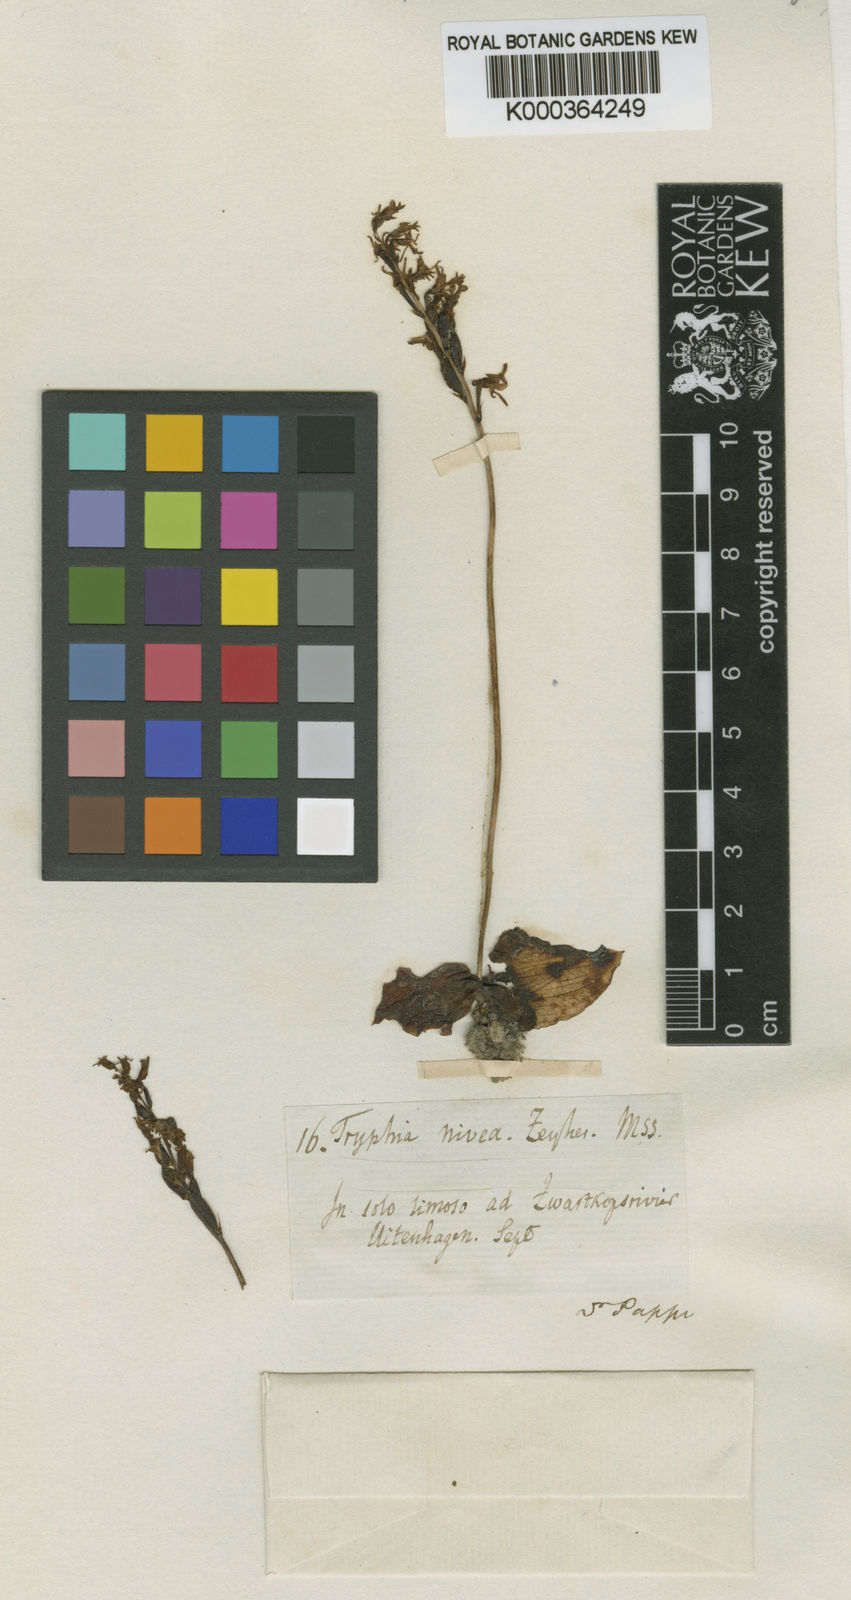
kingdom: Plantae
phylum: Tracheophyta
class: Liliopsida
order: Asparagales
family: Orchidaceae
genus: Holothrix
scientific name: Holothrix parviflora
